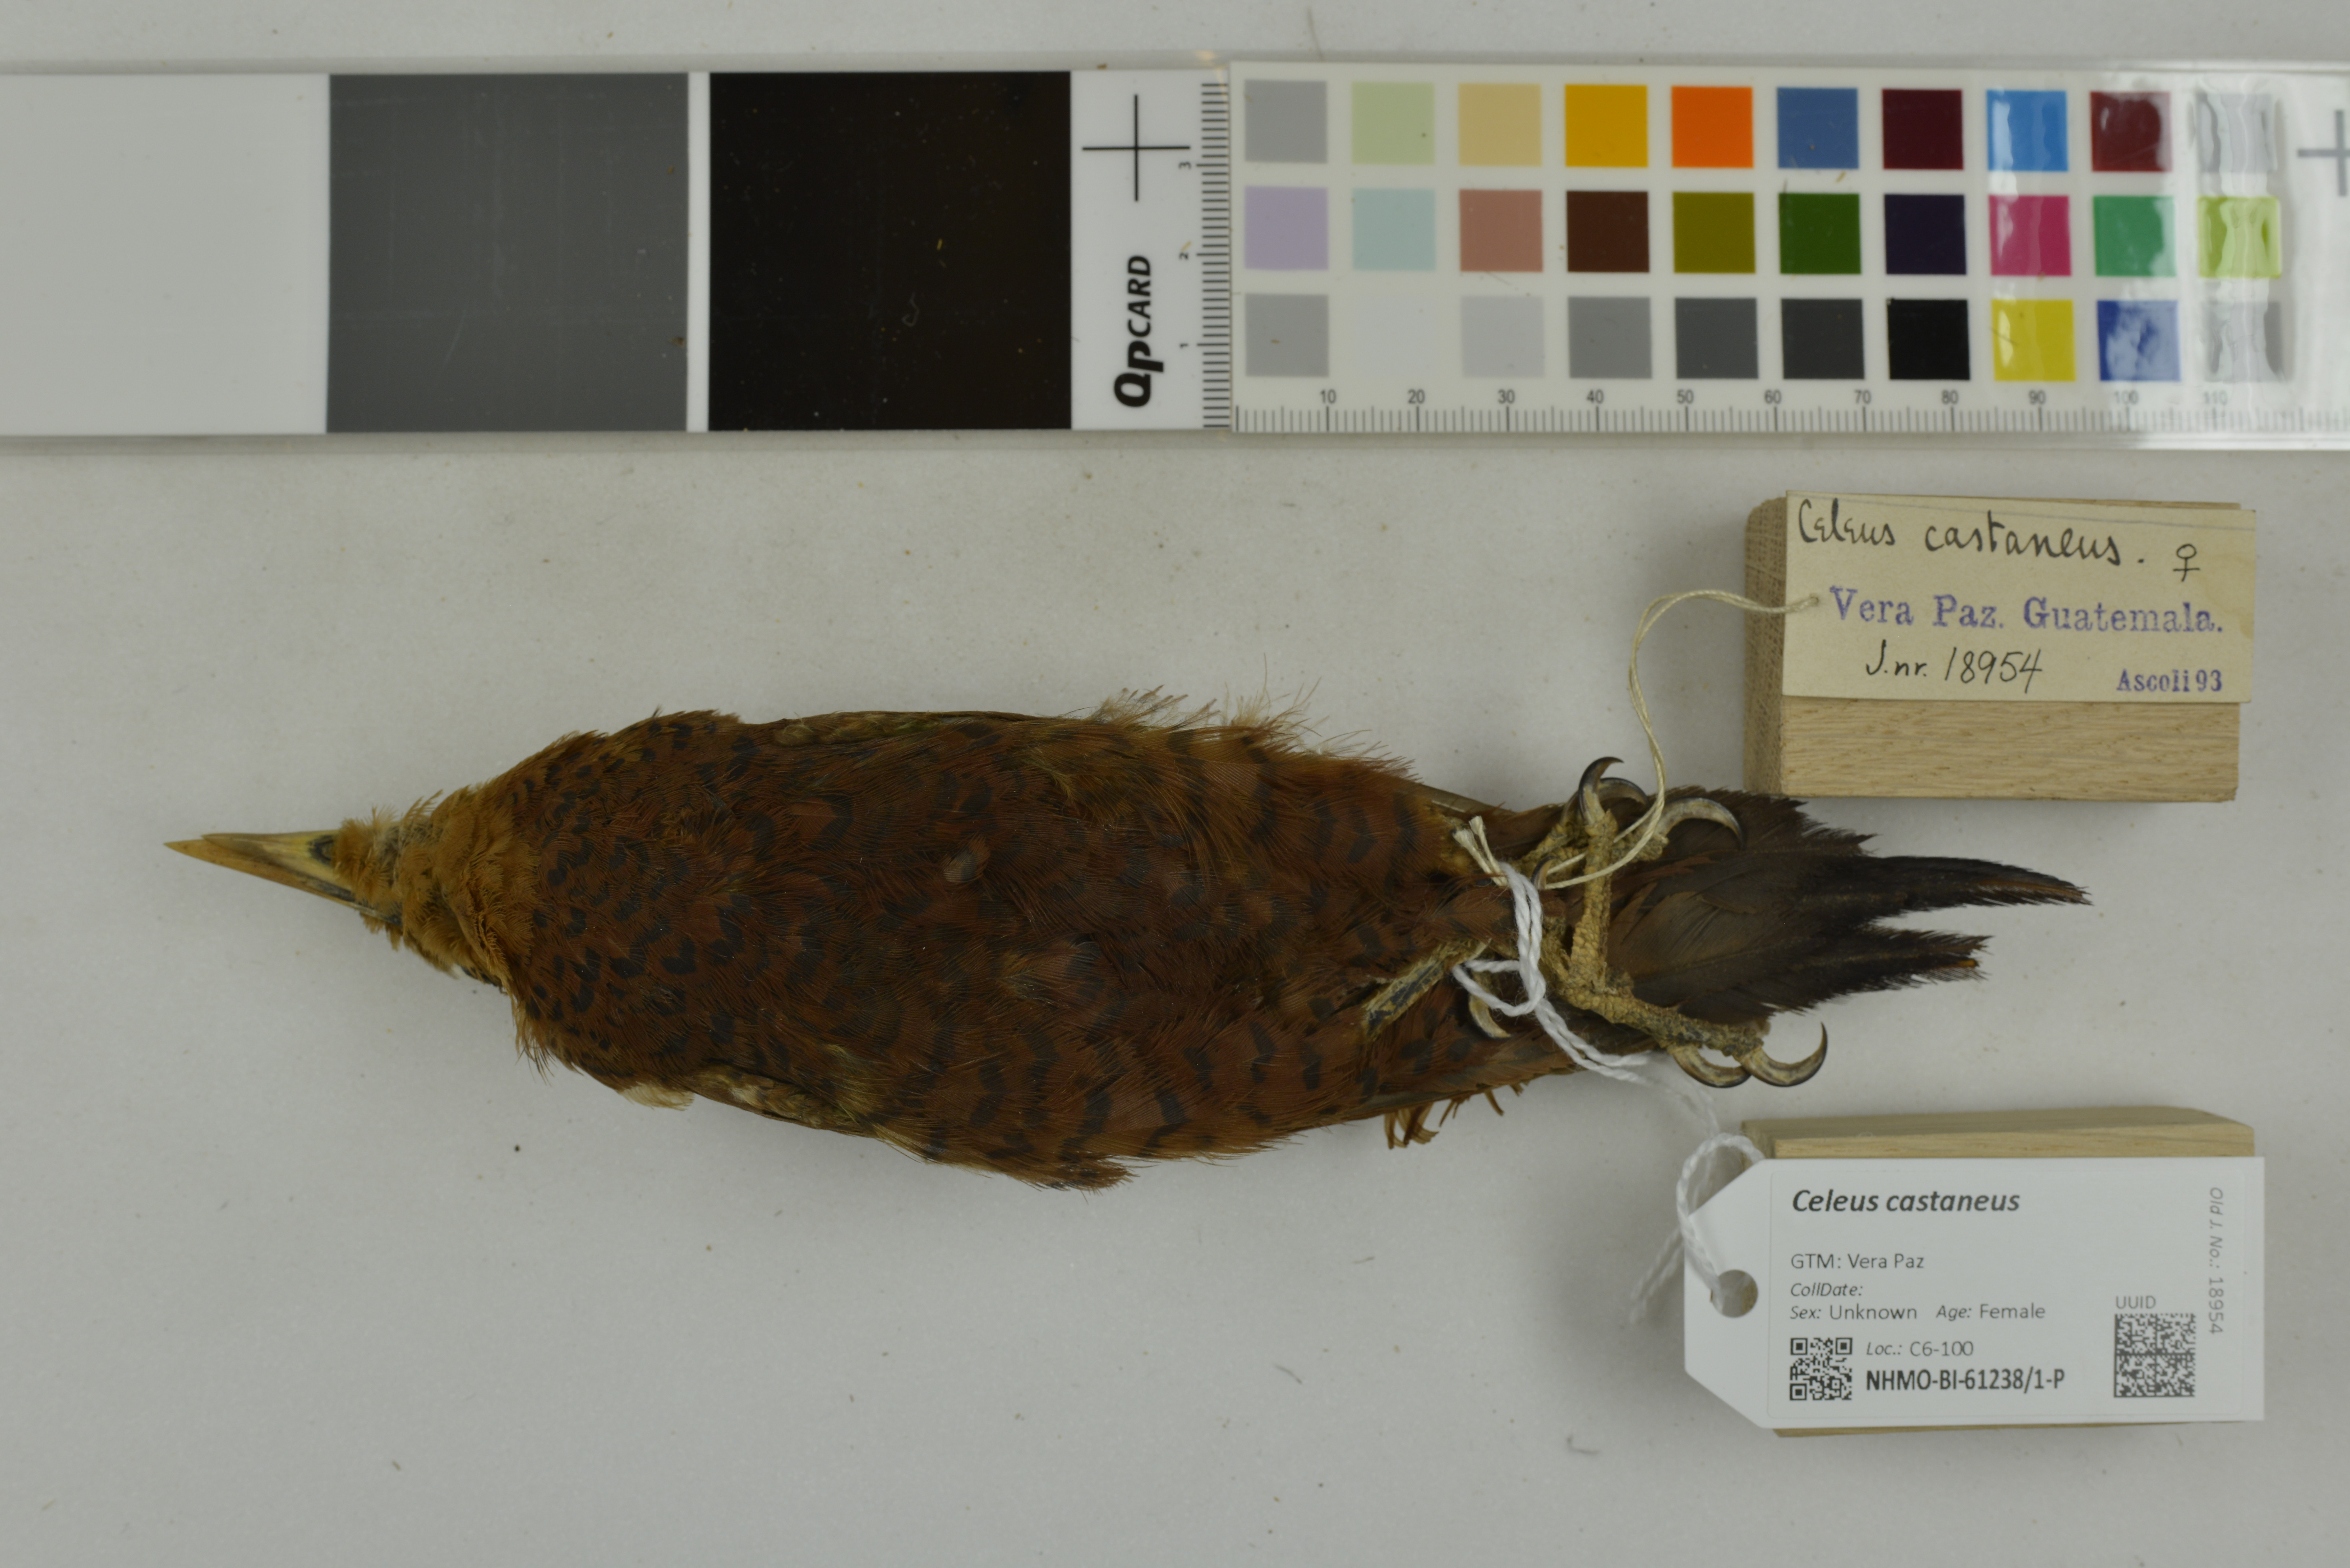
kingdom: Animalia
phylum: Chordata
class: Aves
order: Piciformes
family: Picidae
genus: Celeus
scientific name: Celeus castaneus
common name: Chestnut-colored woodpecker
